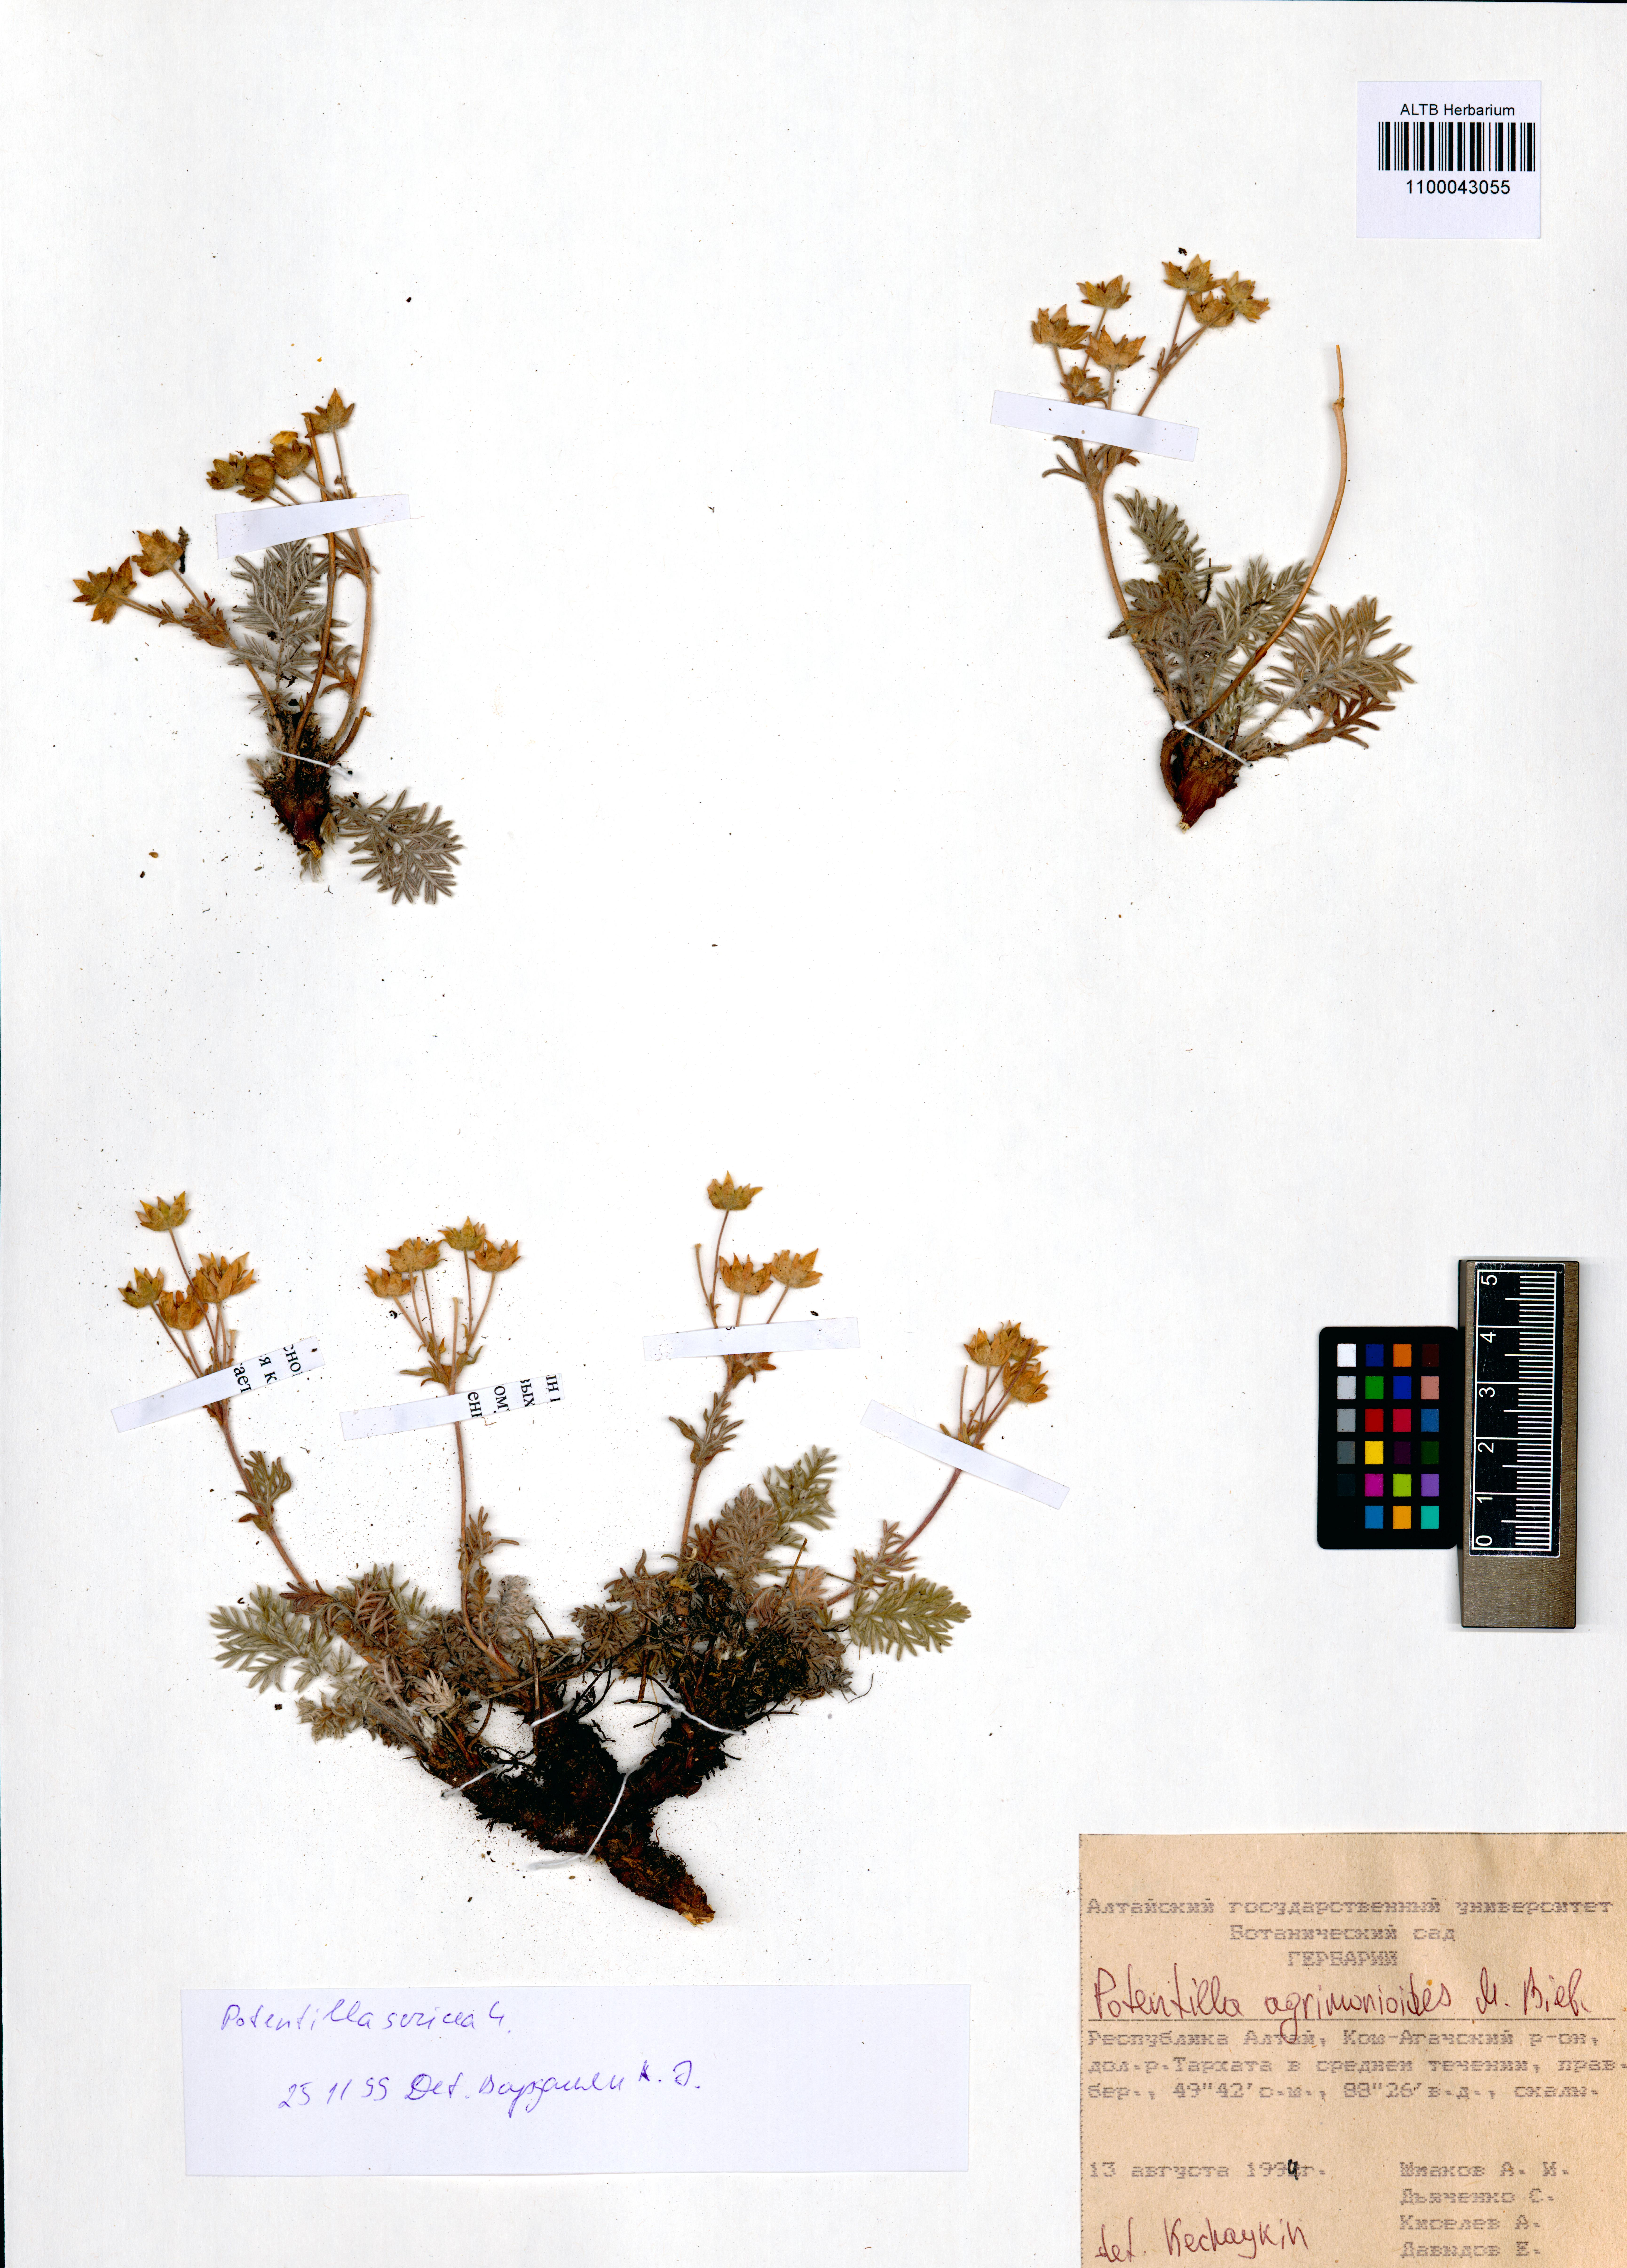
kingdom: Plantae
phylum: Tracheophyta
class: Magnoliopsida
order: Rosales
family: Rosaceae
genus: Potentilla
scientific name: Potentilla agrimonioides
